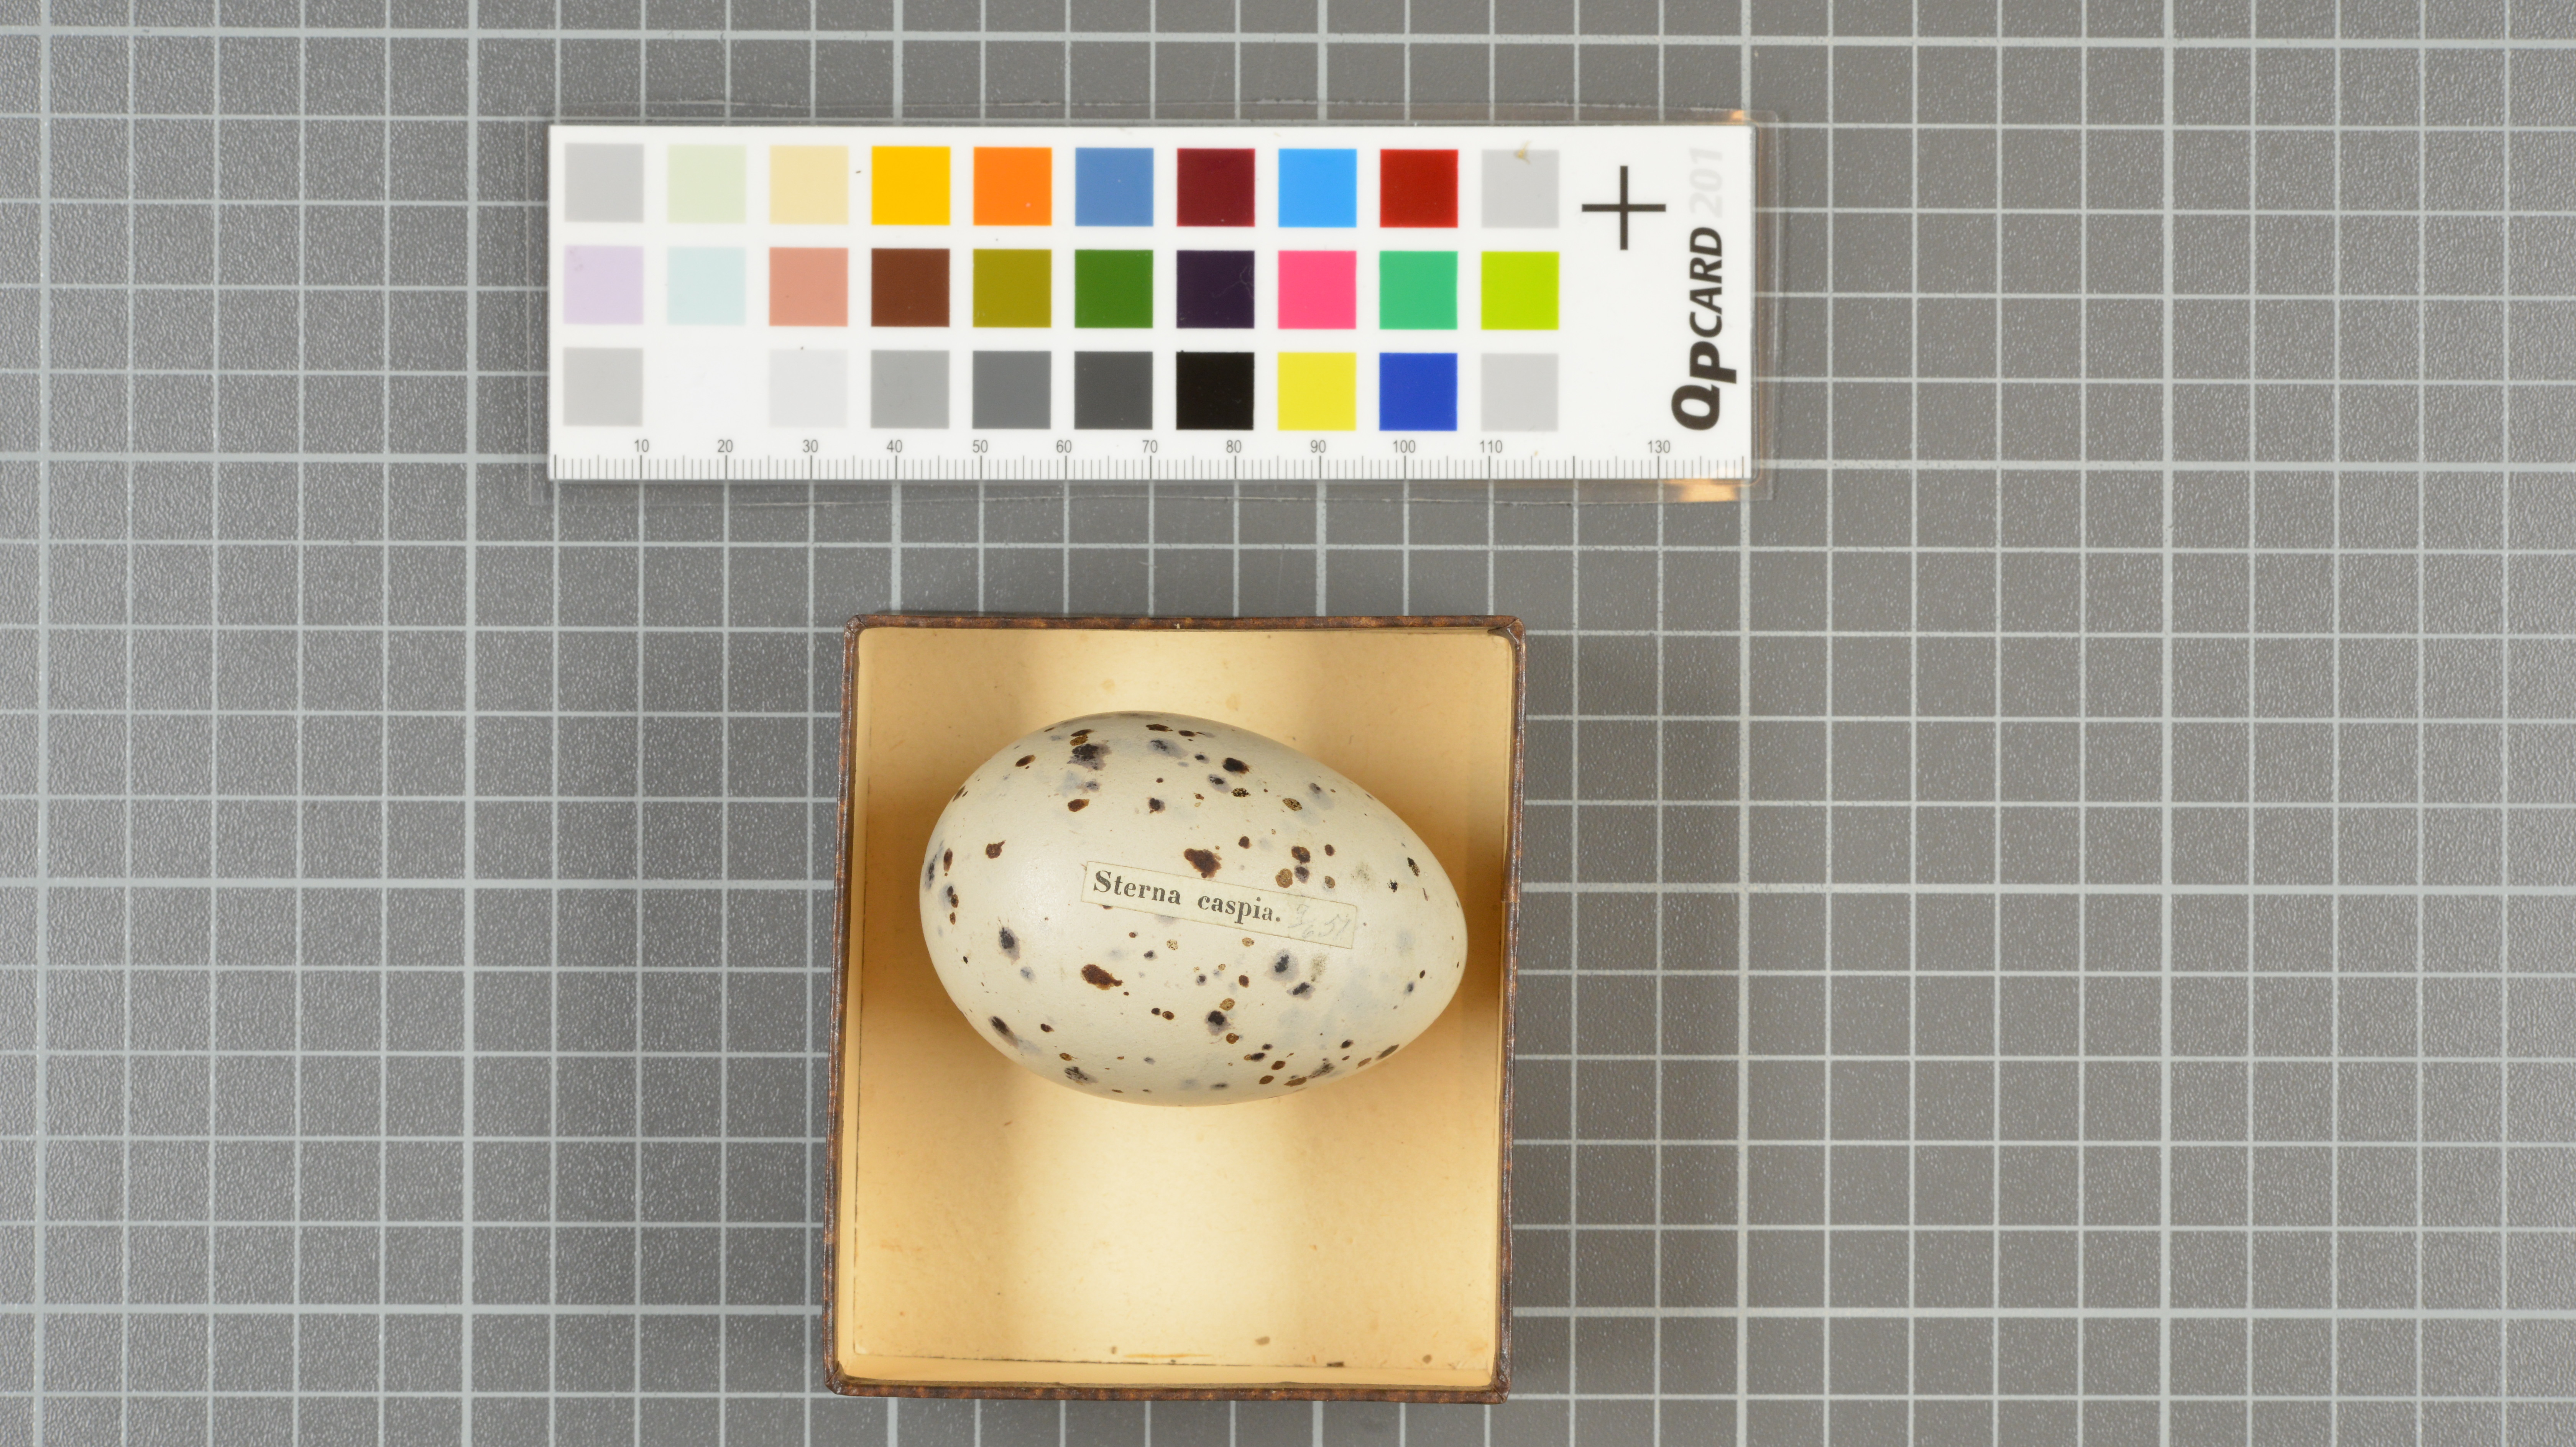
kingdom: Animalia
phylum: Chordata
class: Aves
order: Charadriiformes
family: Laridae
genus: Hydroprogne
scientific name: Hydroprogne caspia
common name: Caspian tern
